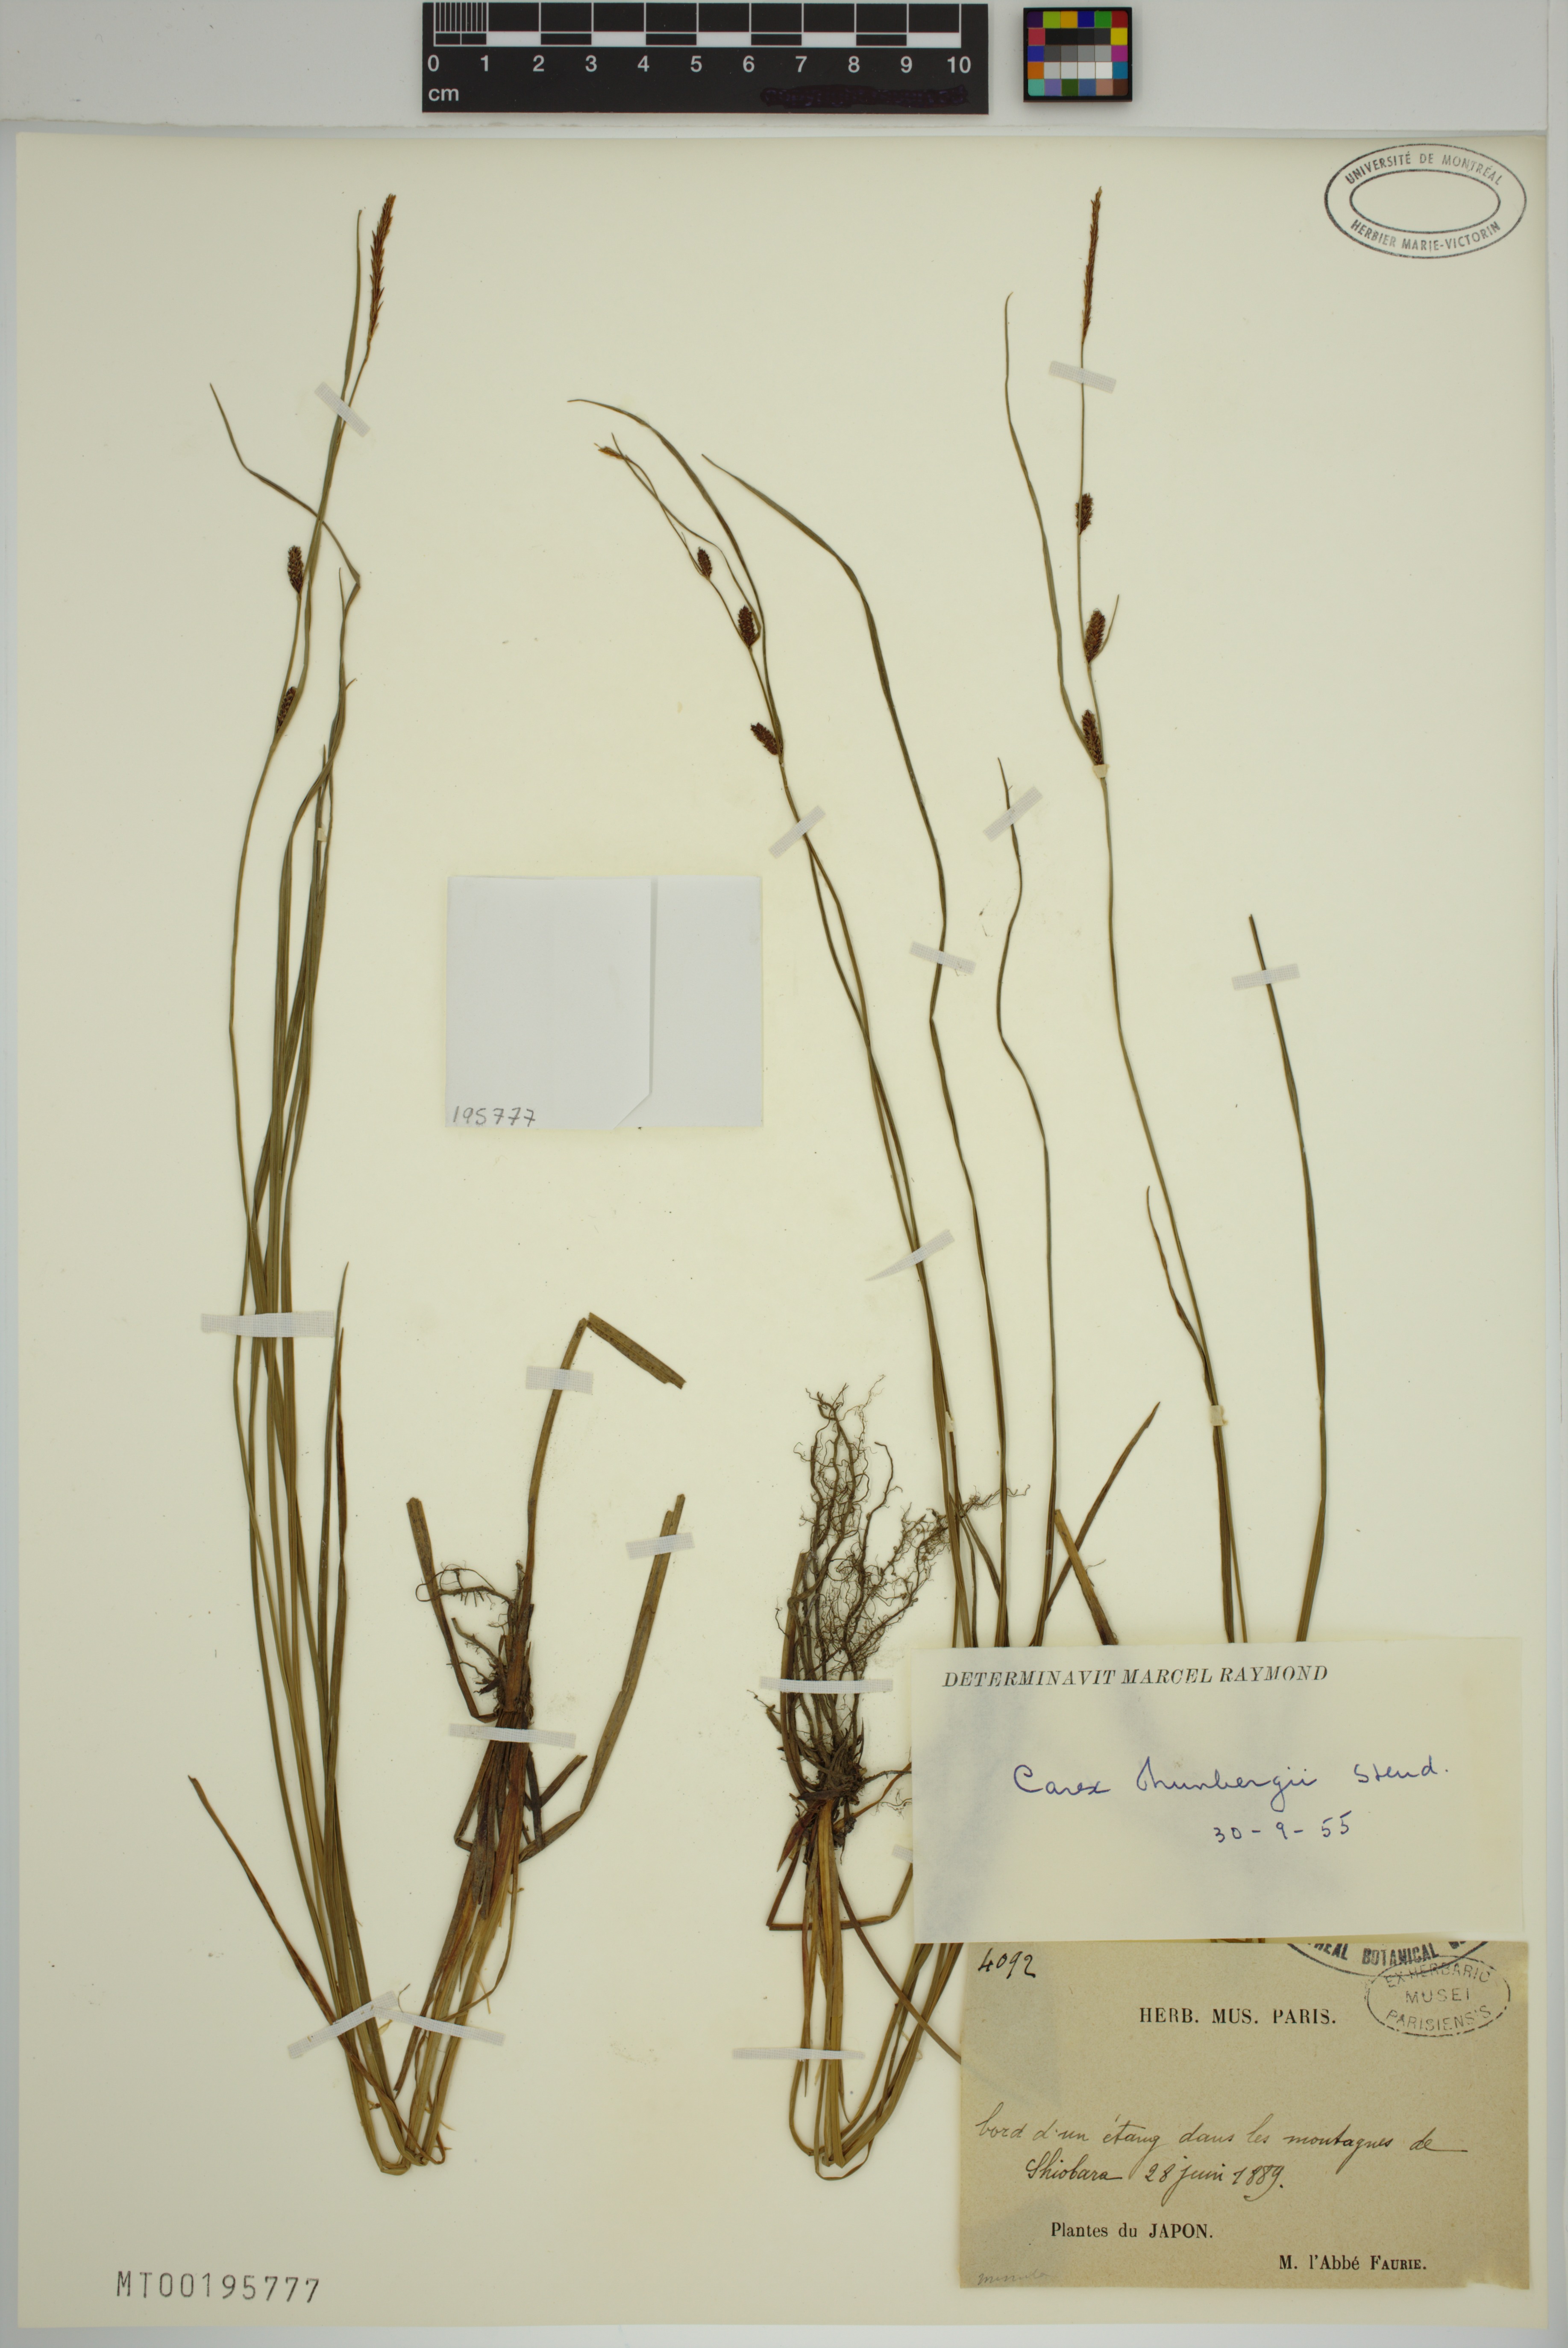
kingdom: Plantae
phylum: Tracheophyta
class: Liliopsida
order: Poales
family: Cyperaceae
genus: Carex
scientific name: Carex thunbergii
